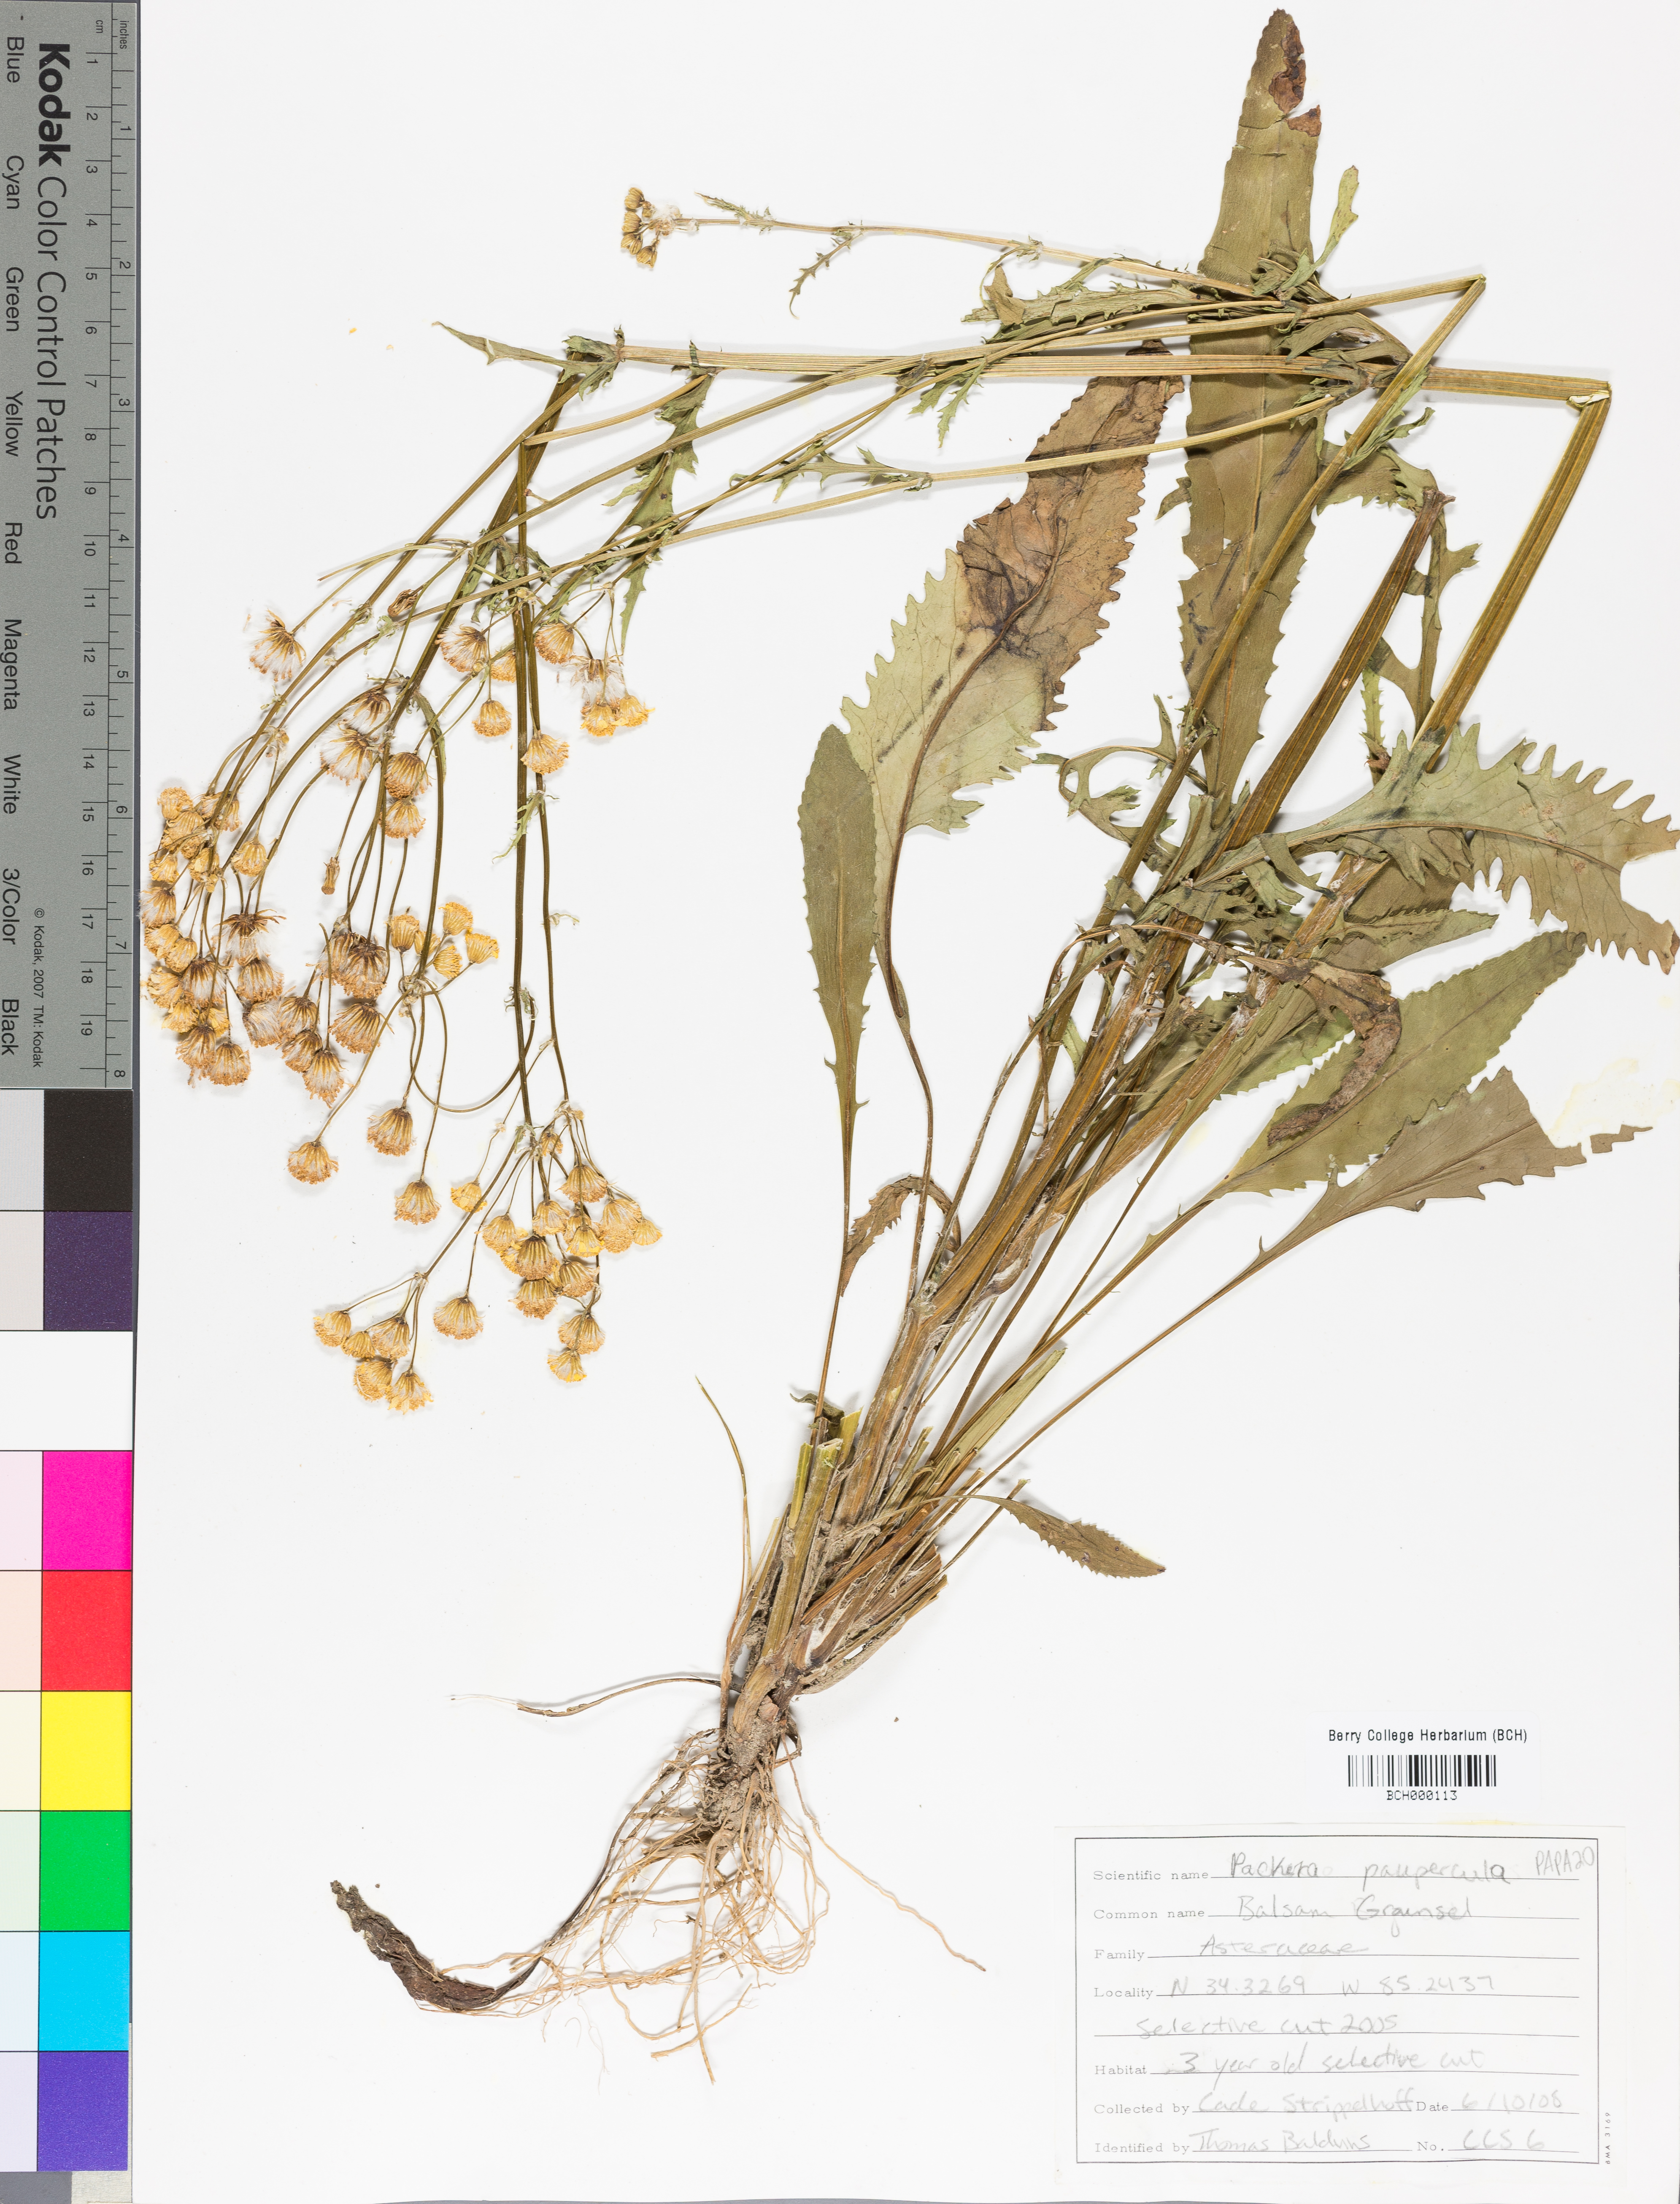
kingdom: Plantae
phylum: Tracheophyta
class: Magnoliopsida
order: Asterales
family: Asteraceae
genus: Packera
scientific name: Packera paupercula
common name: Balsam groundsel
